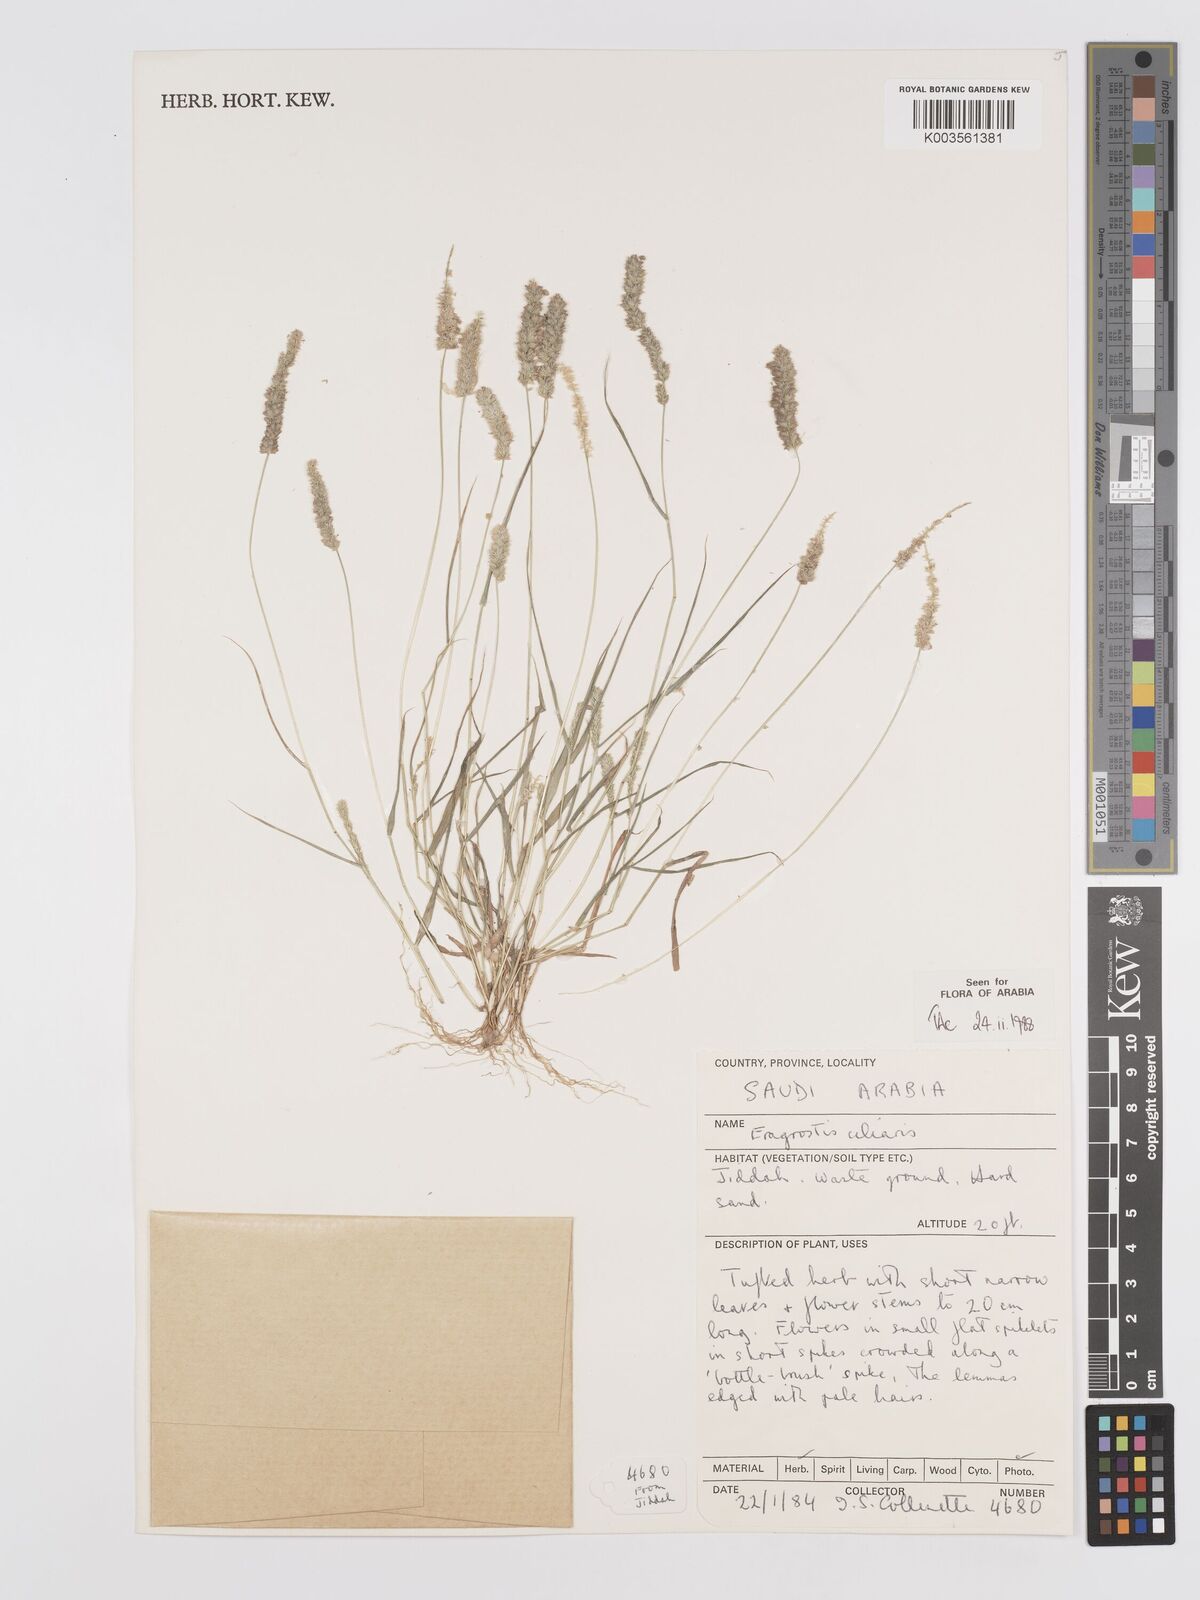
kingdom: Plantae
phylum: Tracheophyta
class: Liliopsida
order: Poales
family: Poaceae
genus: Eragrostis
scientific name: Eragrostis ciliaris
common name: Gophertail lovegrass
